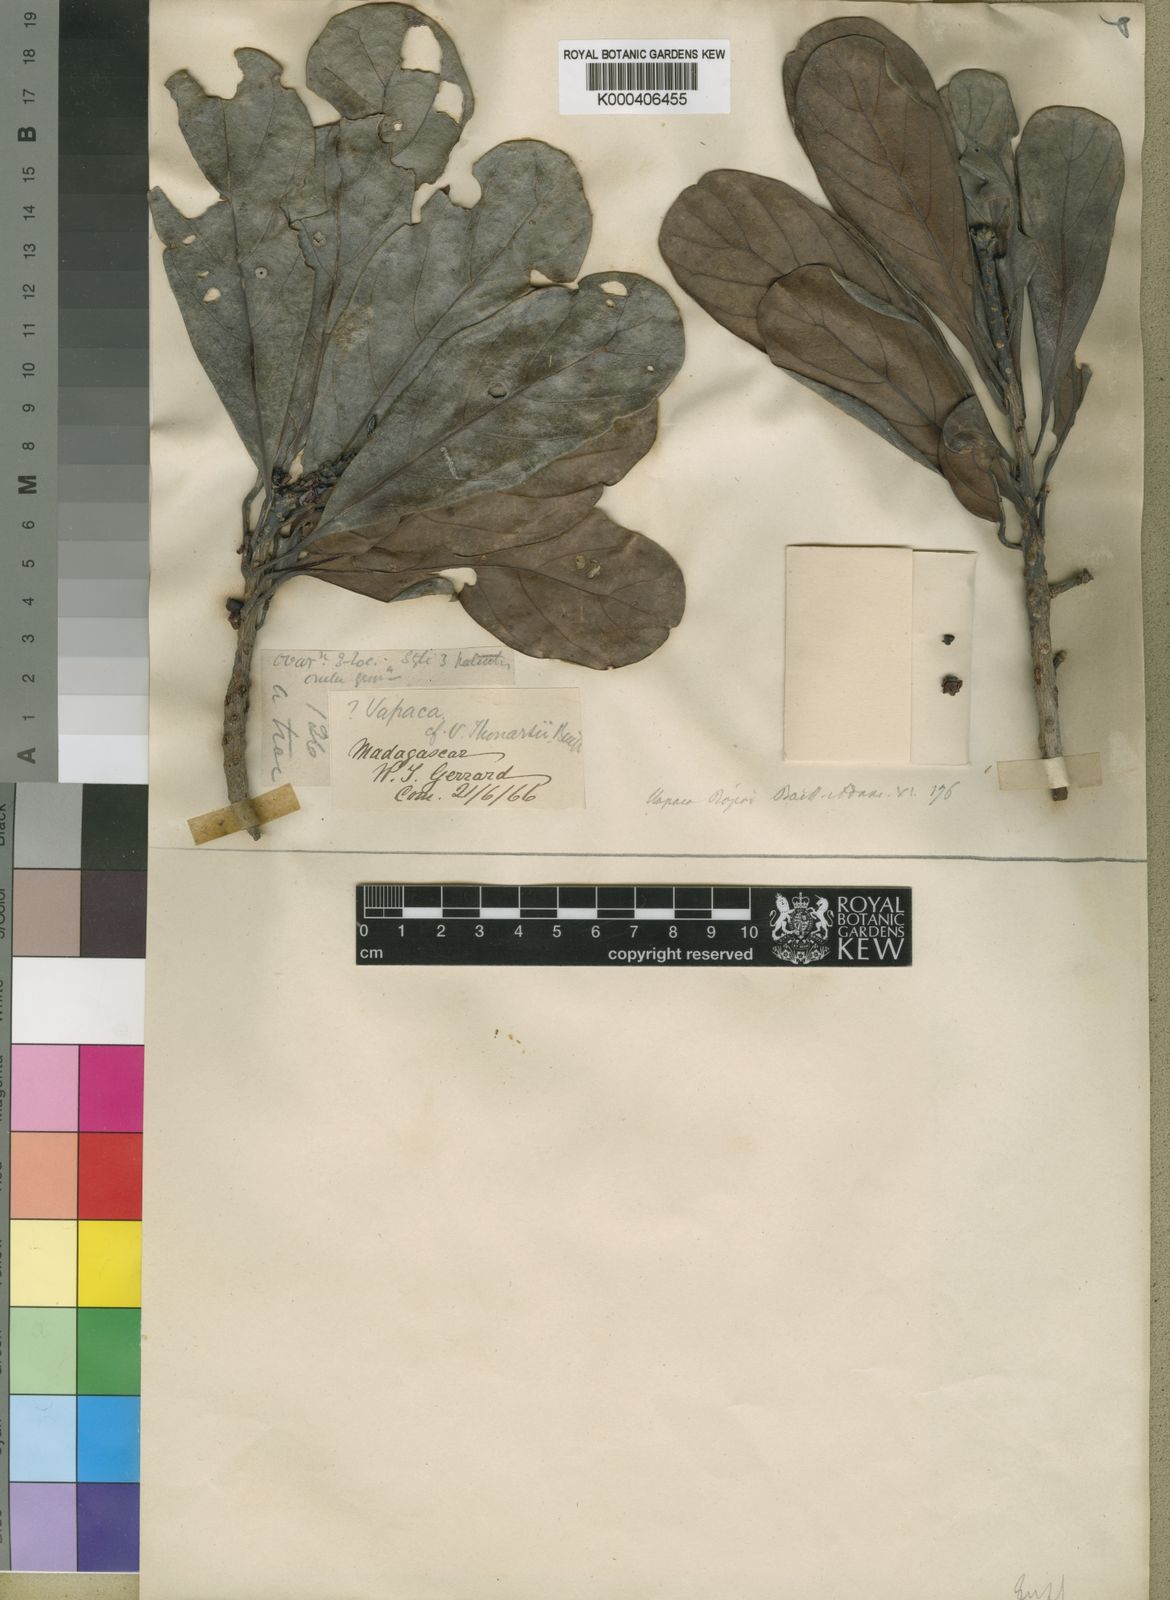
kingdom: Plantae
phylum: Tracheophyta
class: Magnoliopsida
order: Malpighiales
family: Phyllanthaceae
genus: Uapaca
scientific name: Uapaca bojeri
